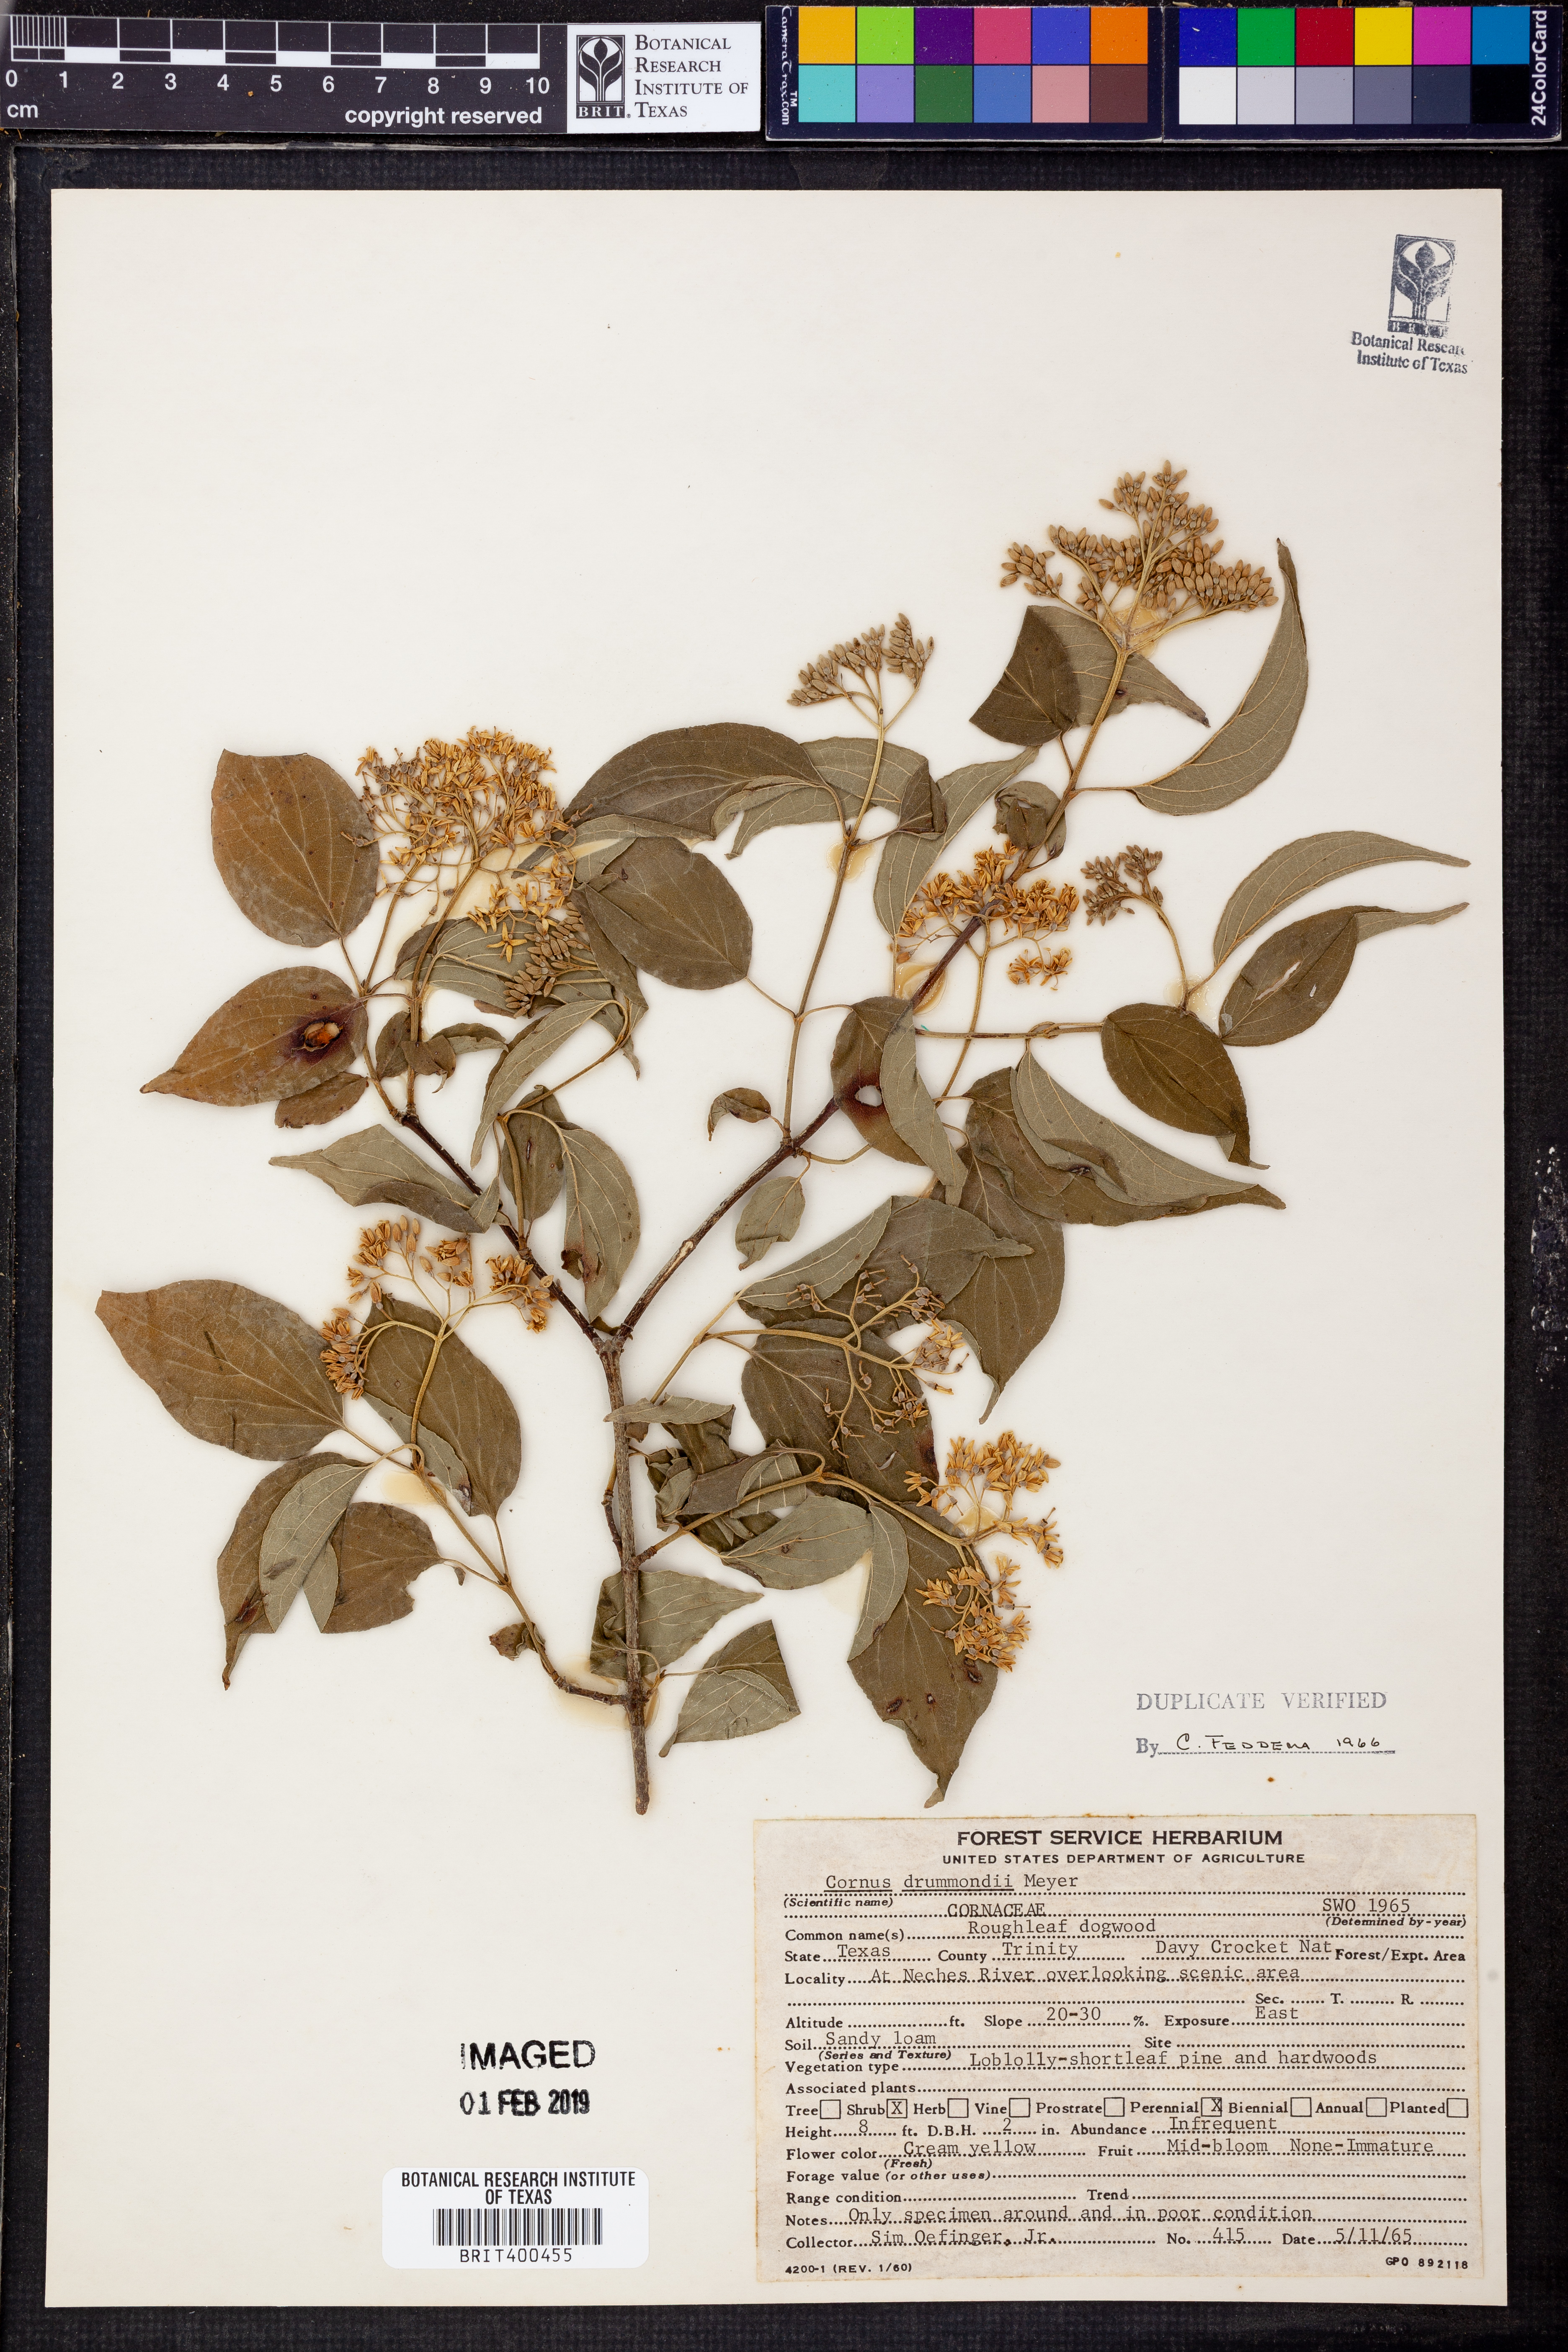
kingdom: Plantae
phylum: Tracheophyta
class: Magnoliopsida
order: Cornales
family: Cornaceae
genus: Cornus
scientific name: Cornus drummondii
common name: Rough-leaf dogwood
